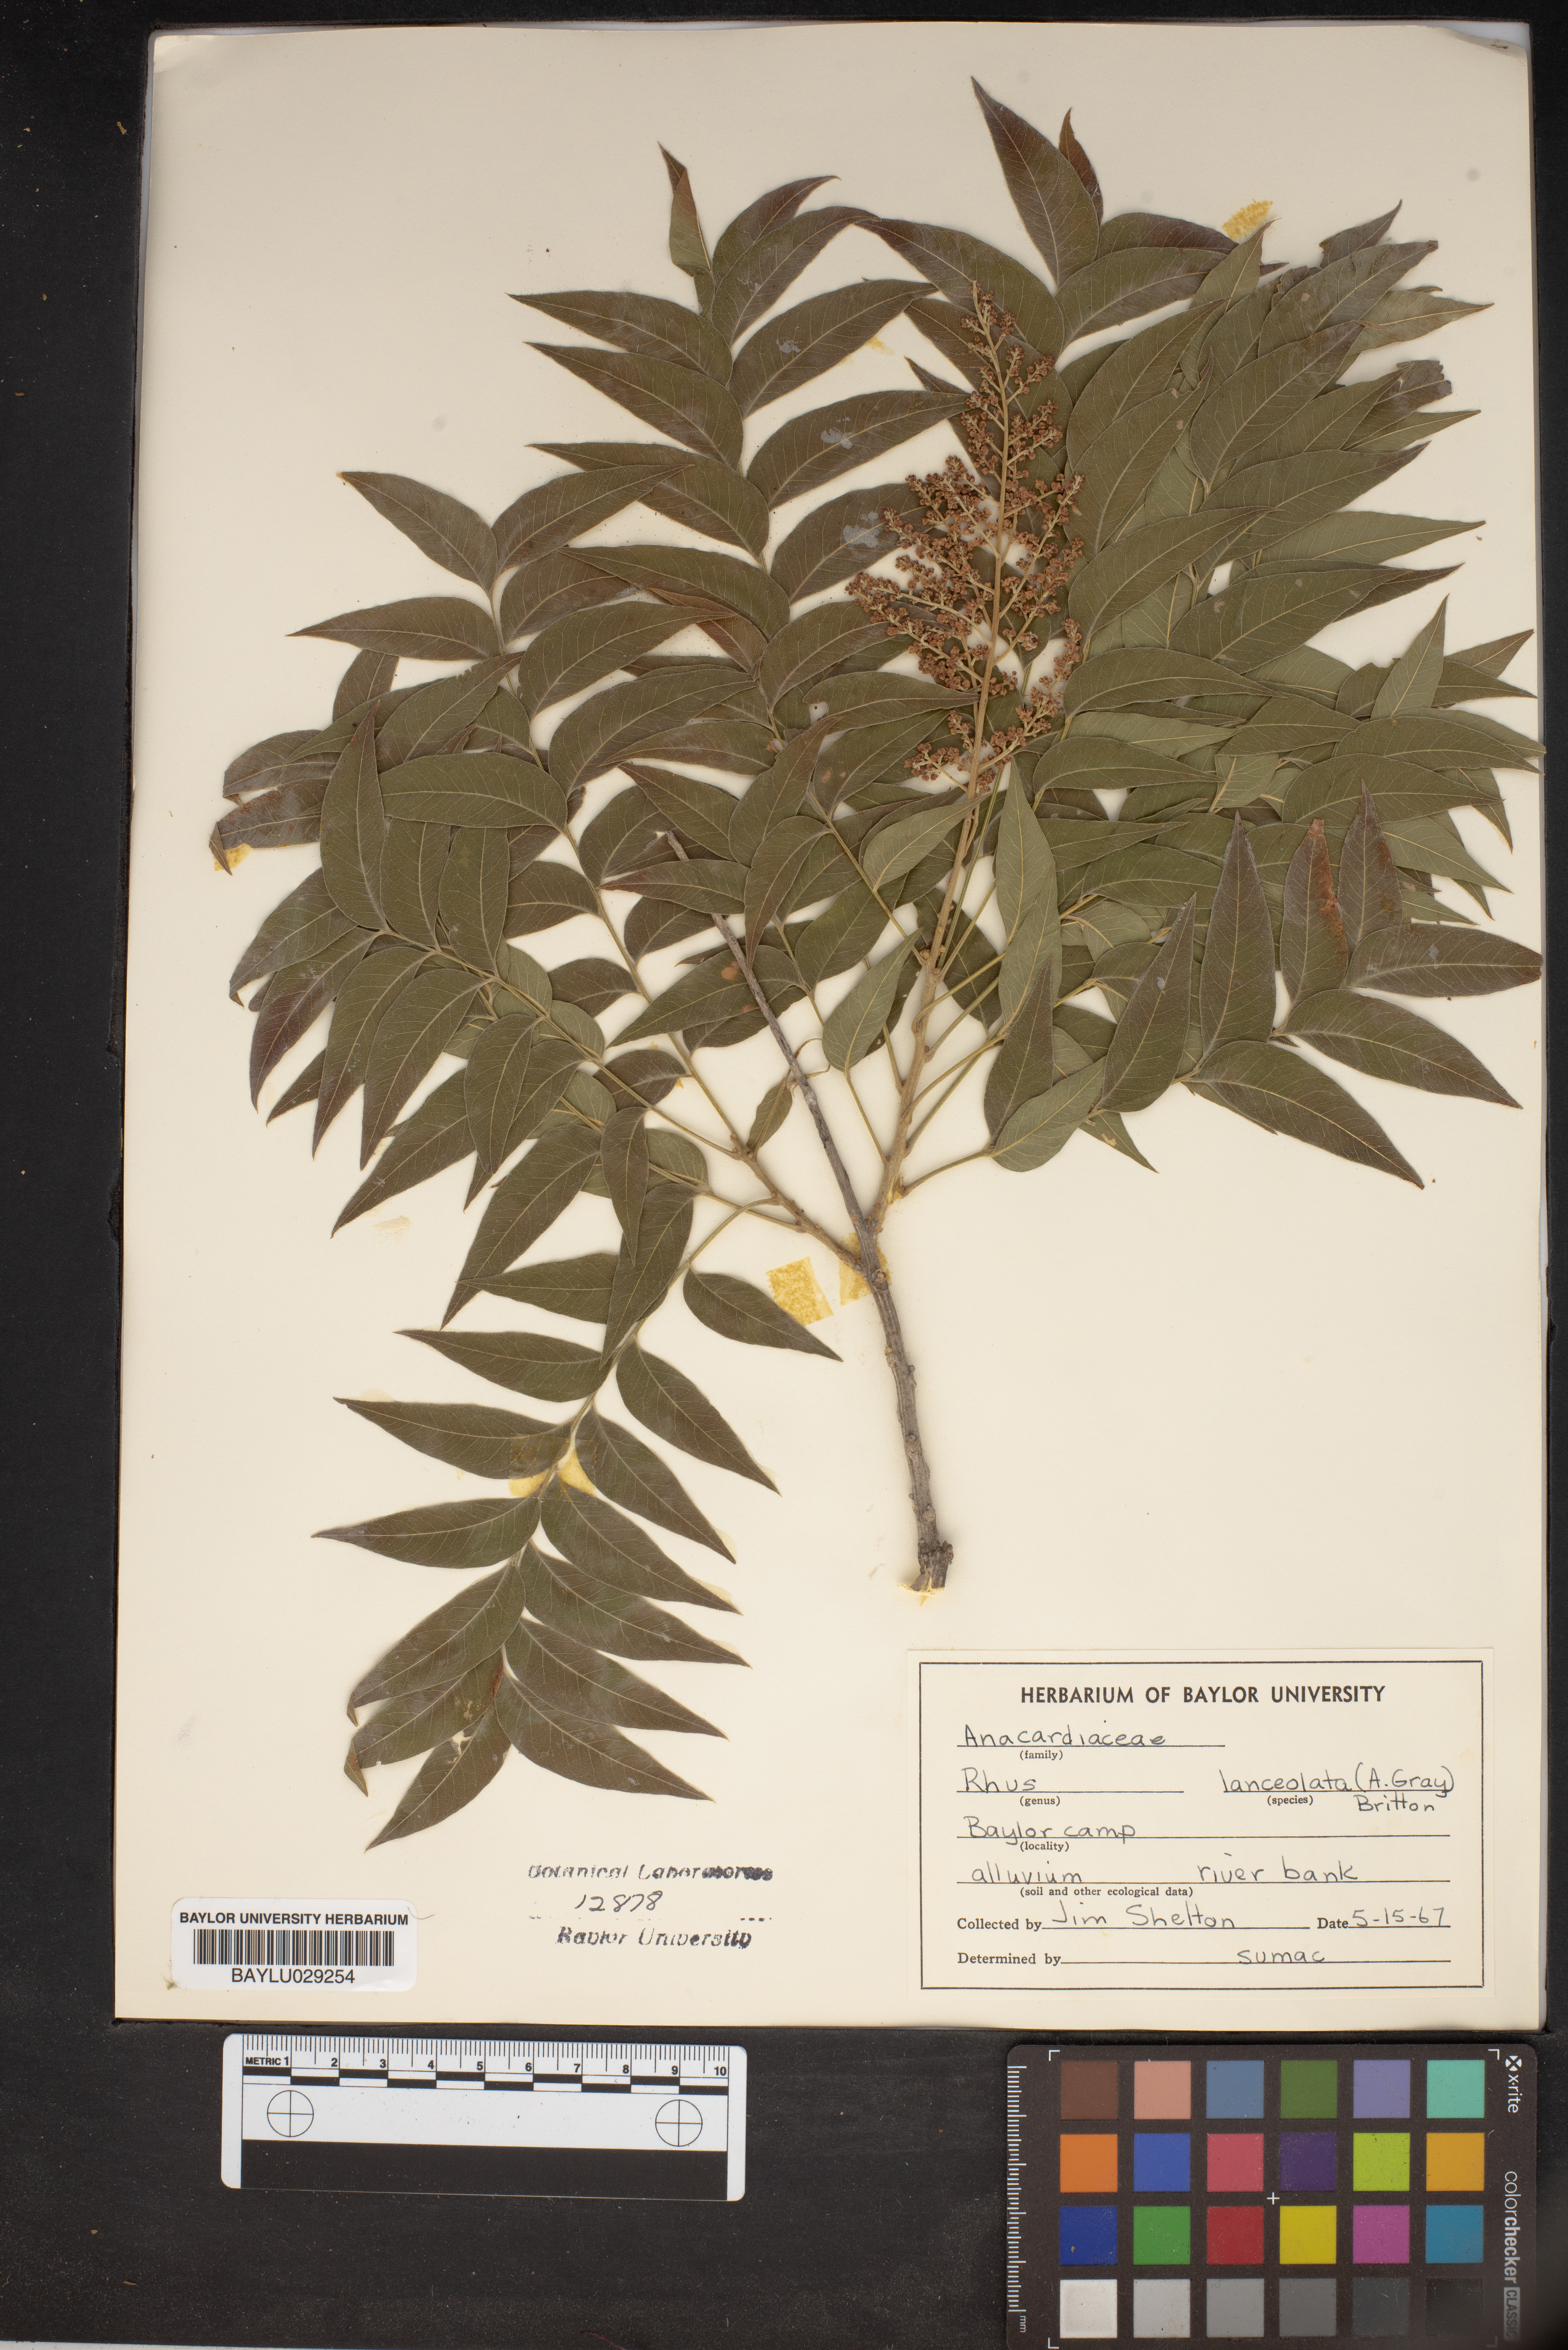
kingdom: Plantae
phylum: Tracheophyta
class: Magnoliopsida
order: Sapindales
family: Anacardiaceae
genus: Rhus
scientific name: Rhus lanceolata
